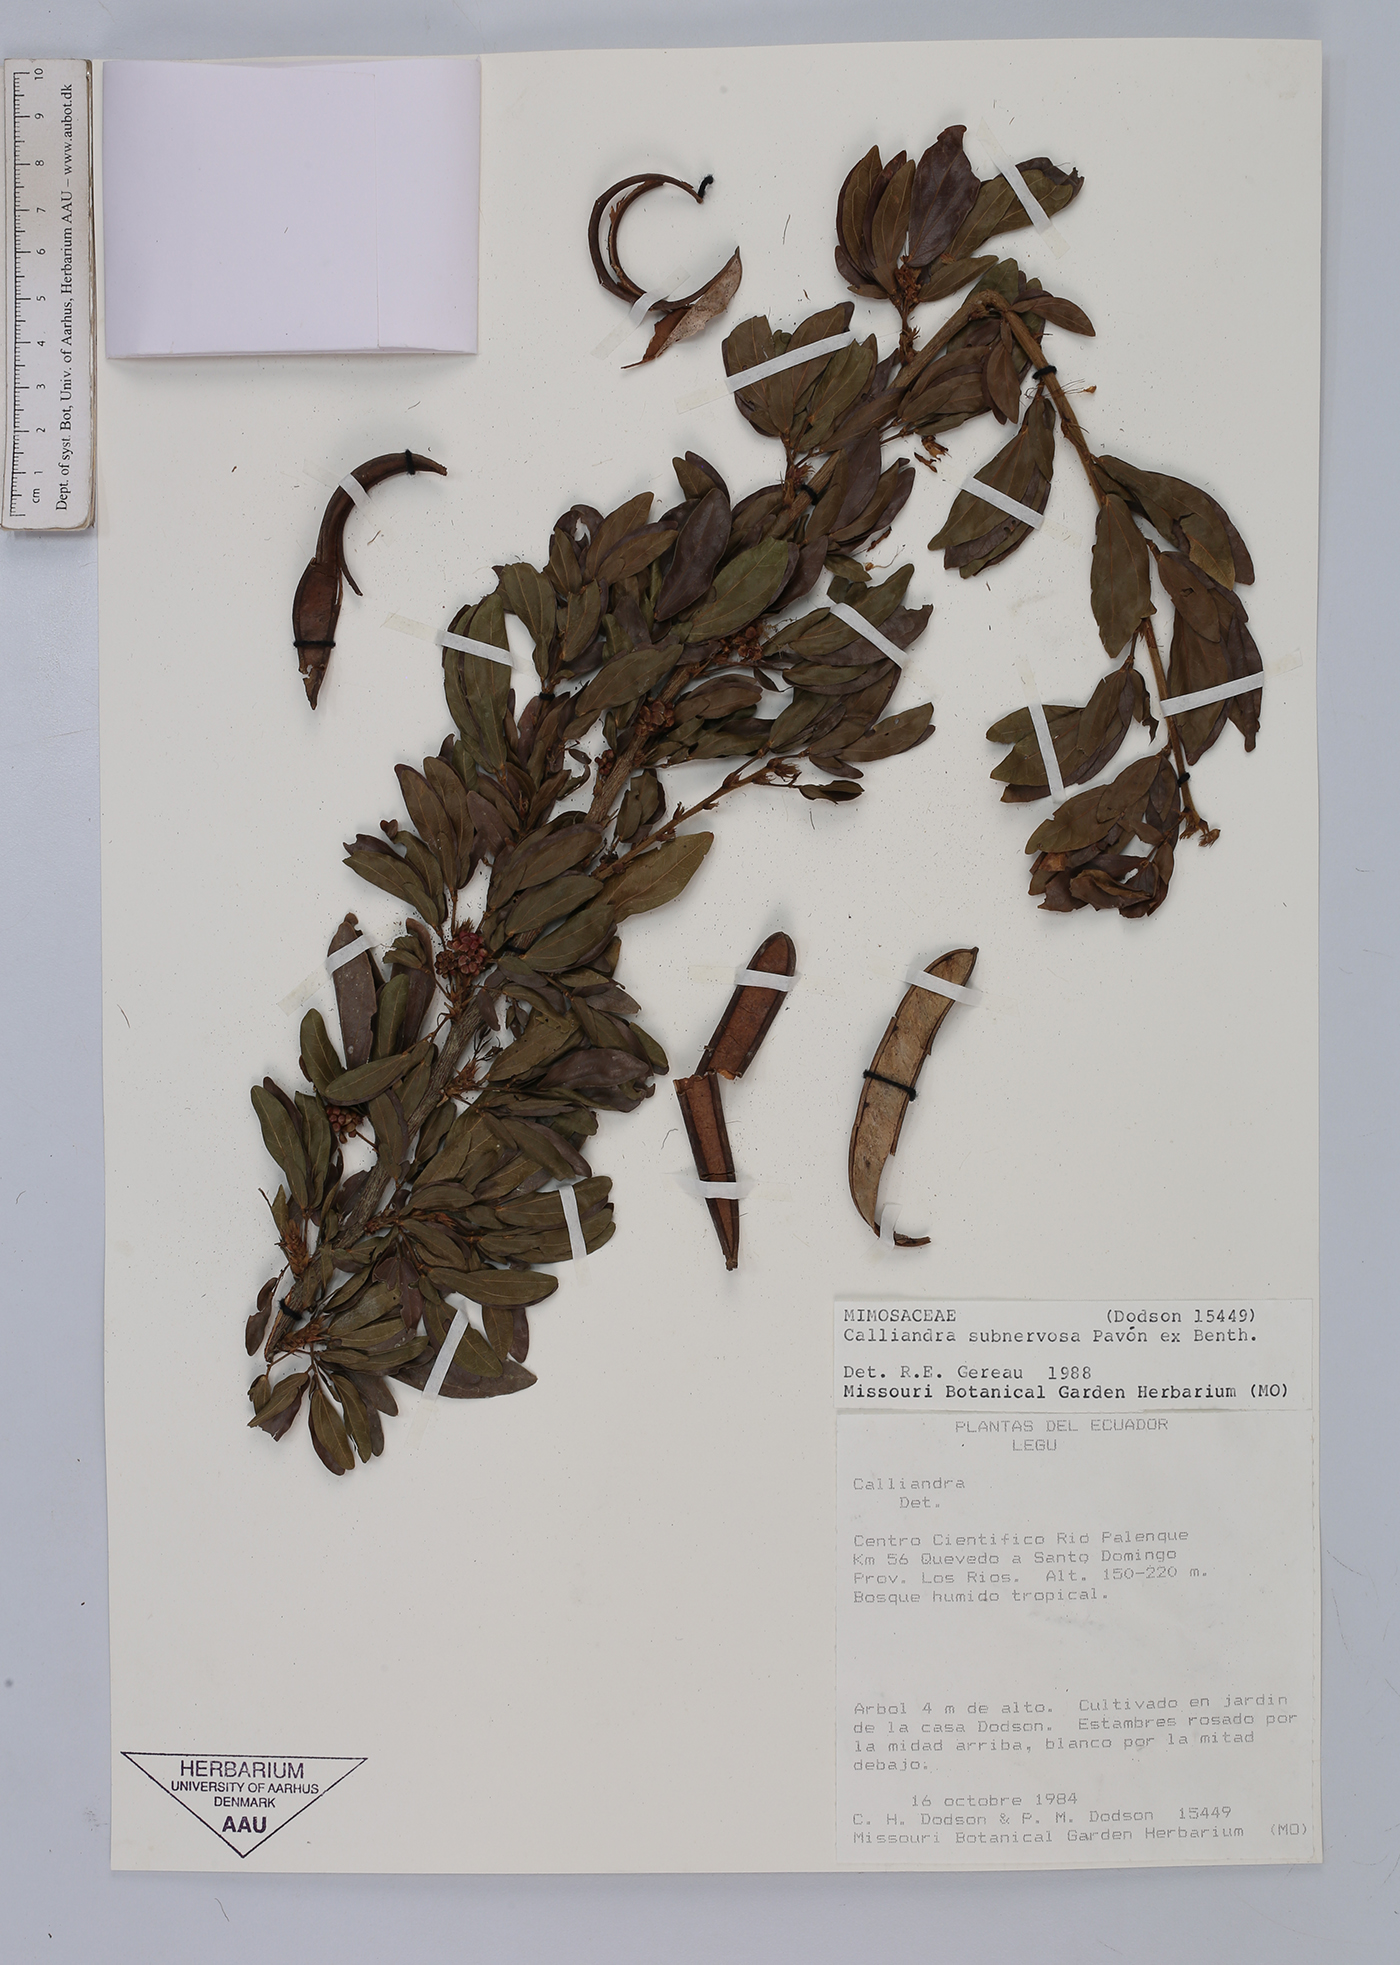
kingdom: Plantae
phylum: Tracheophyta
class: Magnoliopsida
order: Fabales
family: Fabaceae
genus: Calliandra
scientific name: Calliandra angustifolia
